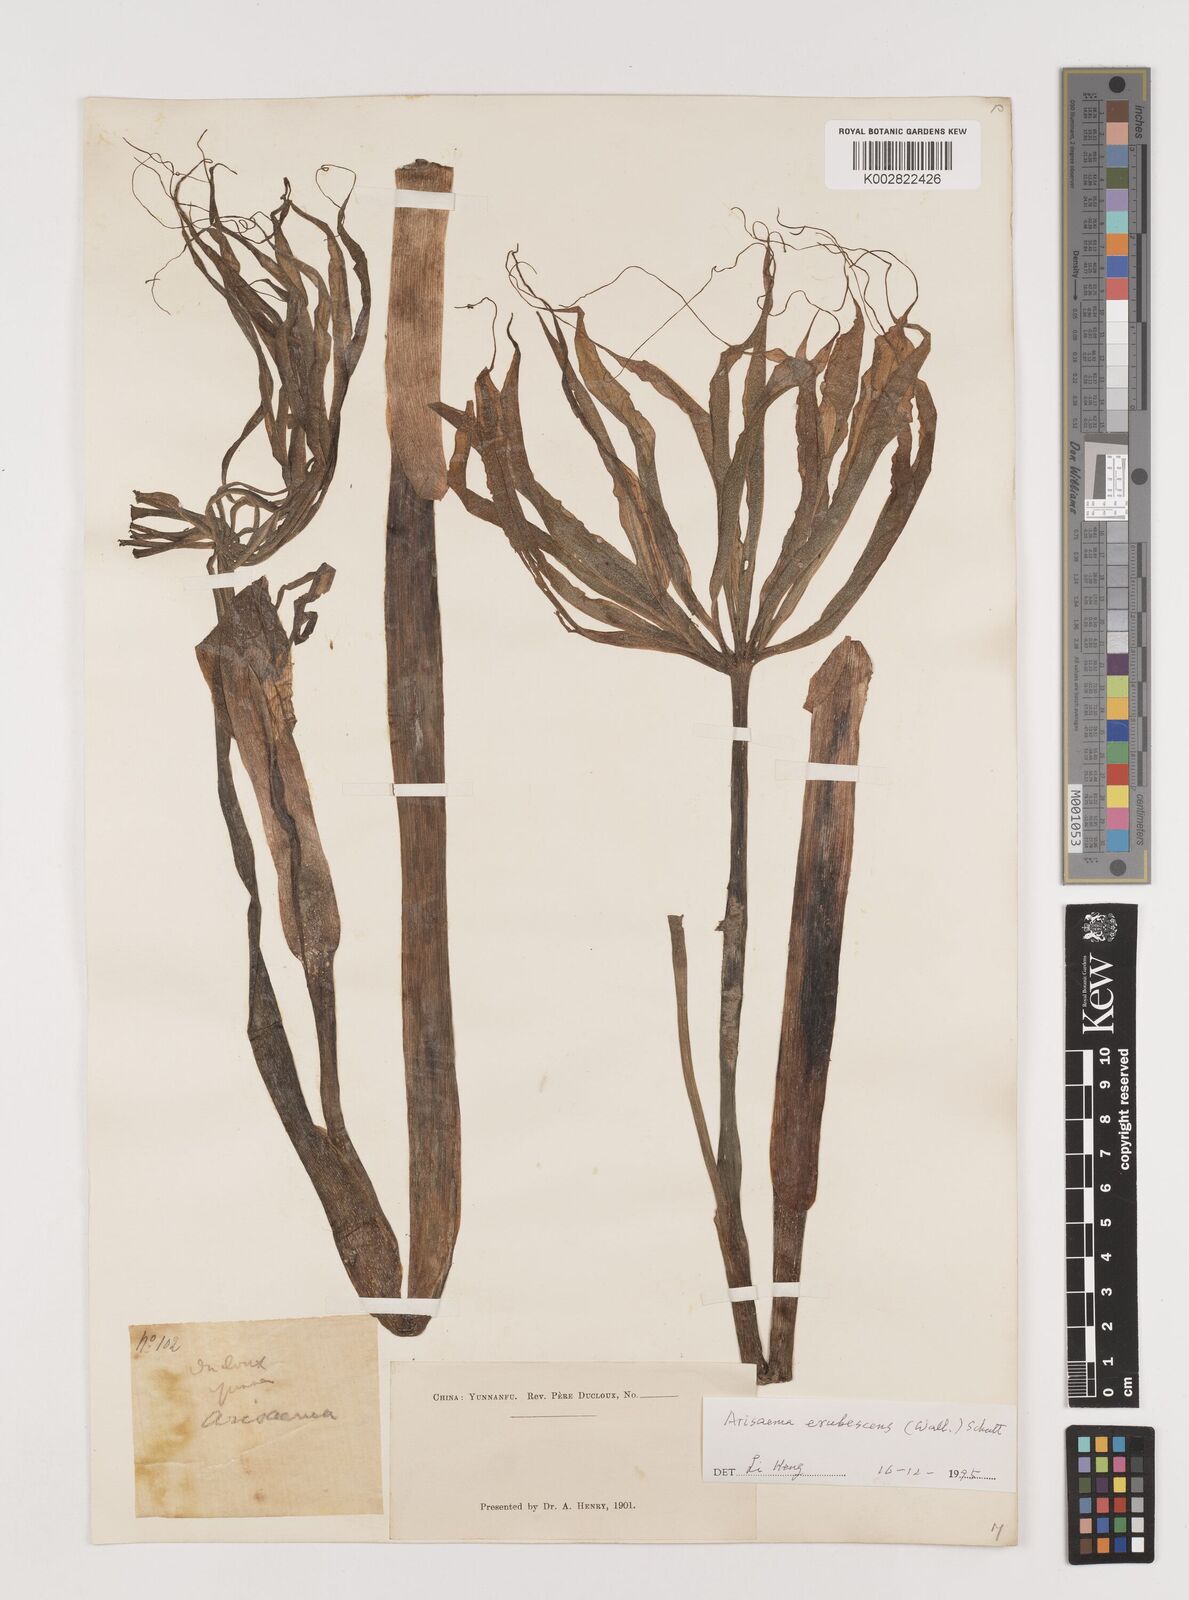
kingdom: Plantae
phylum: Tracheophyta
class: Liliopsida
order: Alismatales
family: Araceae
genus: Arisaema
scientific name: Arisaema erubescens
